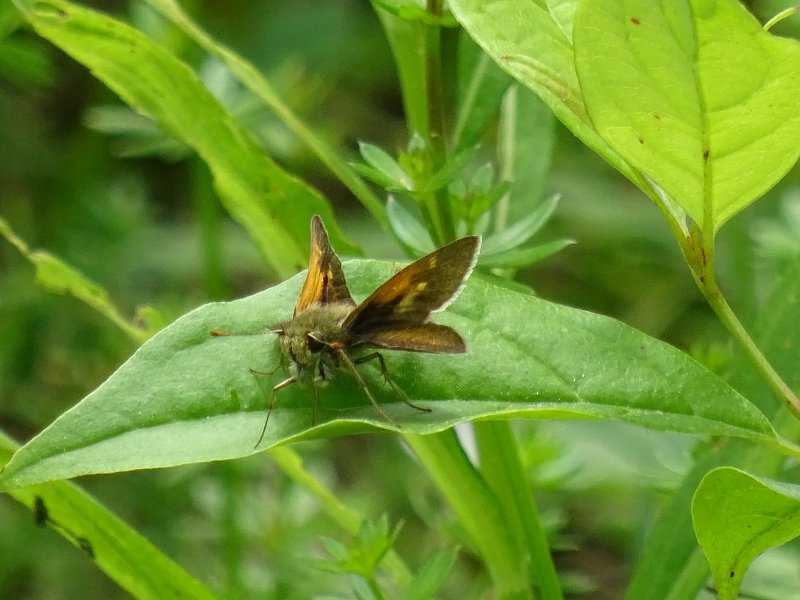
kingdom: Animalia
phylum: Arthropoda
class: Insecta
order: Lepidoptera
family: Hesperiidae
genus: Polites
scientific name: Polites themistocles
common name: Tawny-edged Skipper
